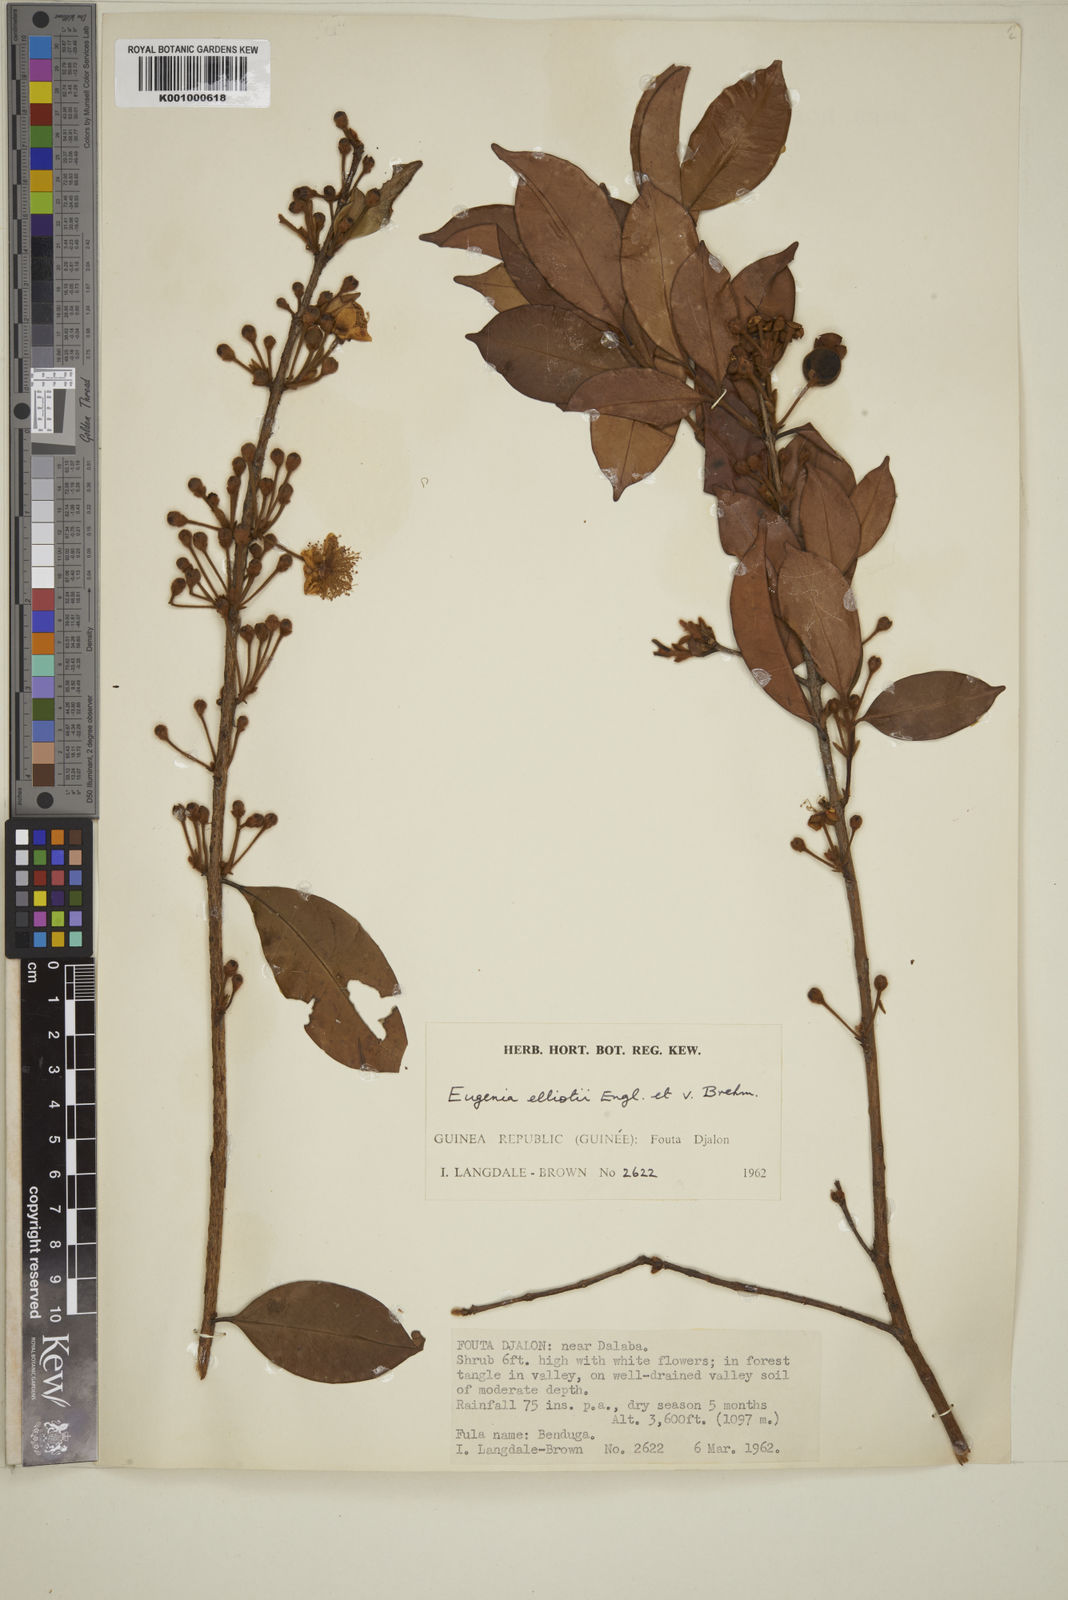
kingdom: Plantae
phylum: Tracheophyta
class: Magnoliopsida
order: Myrtales
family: Myrtaceae
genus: Eugenia
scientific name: Eugenia elliotii
